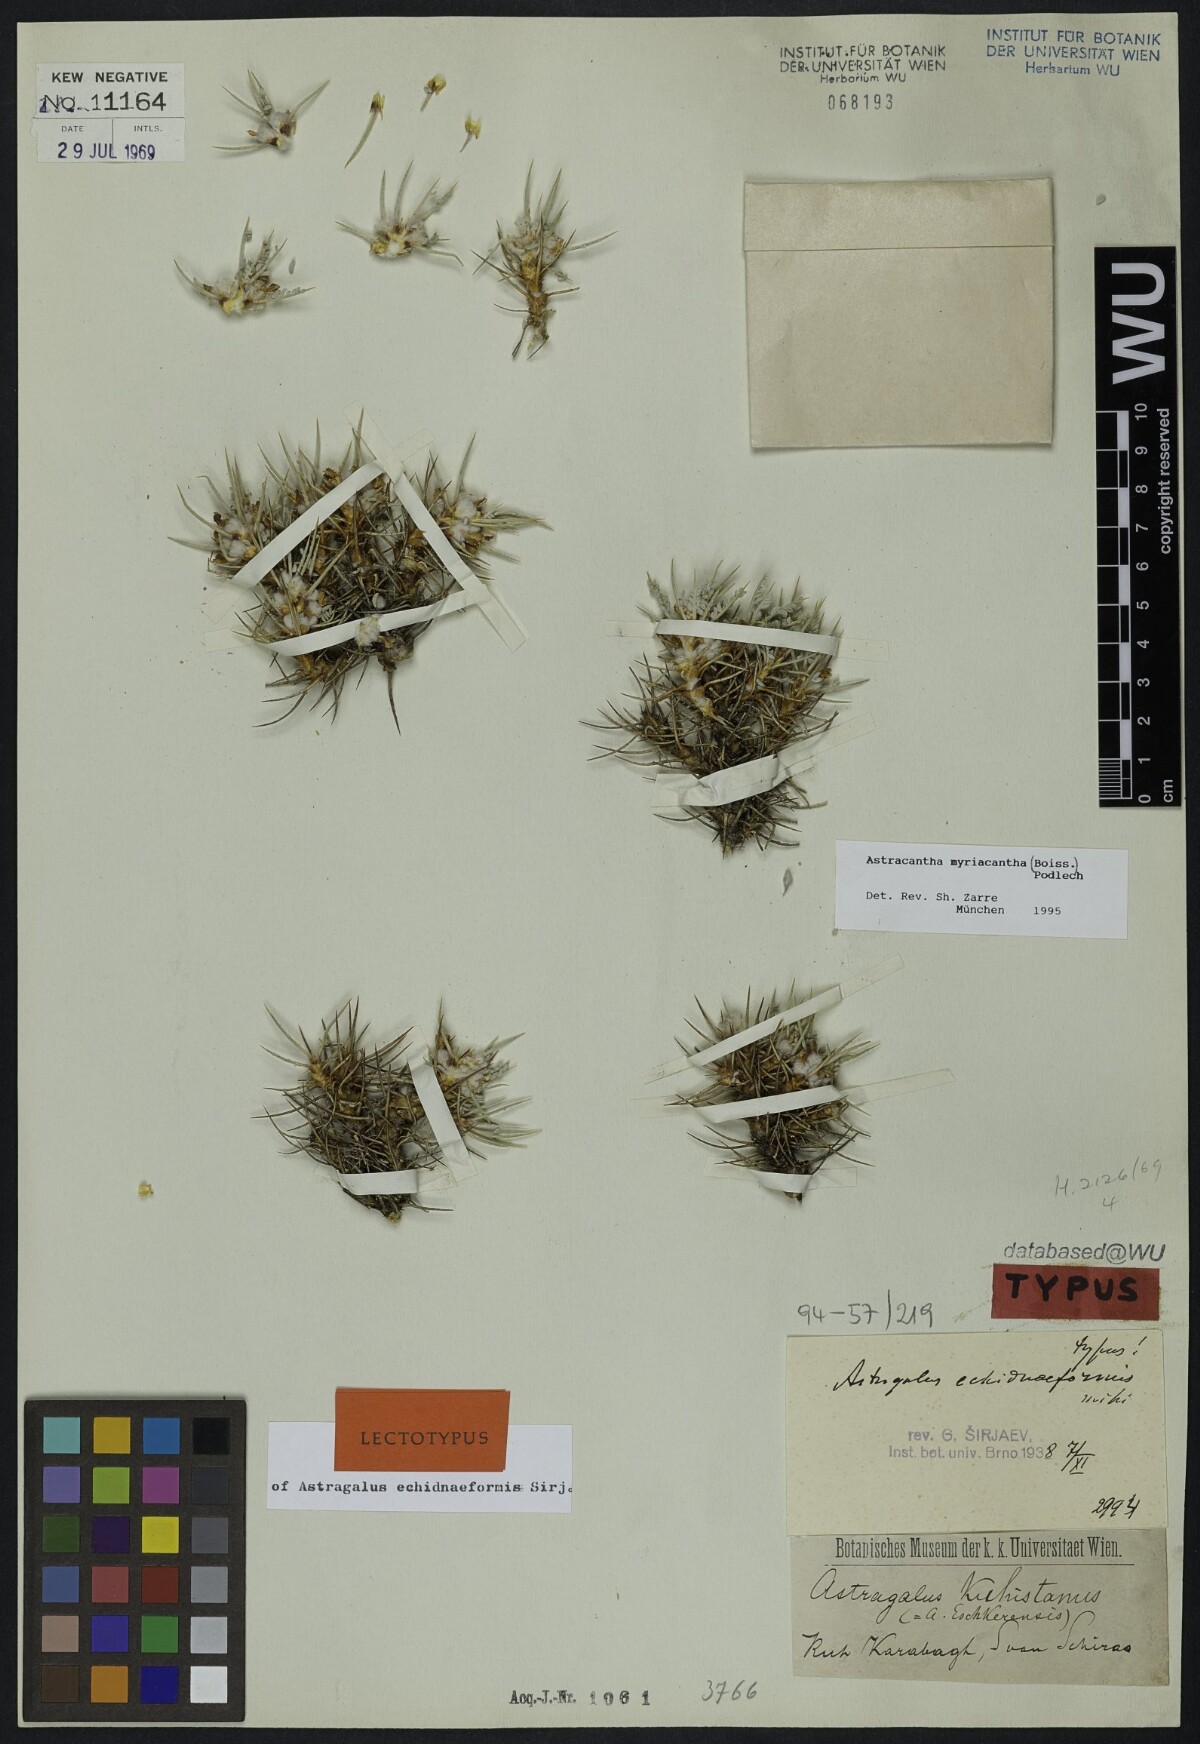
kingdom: Plantae
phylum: Tracheophyta
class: Magnoliopsida
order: Fabales
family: Fabaceae
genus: Astragalus
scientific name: Astragalus myriacanthus
